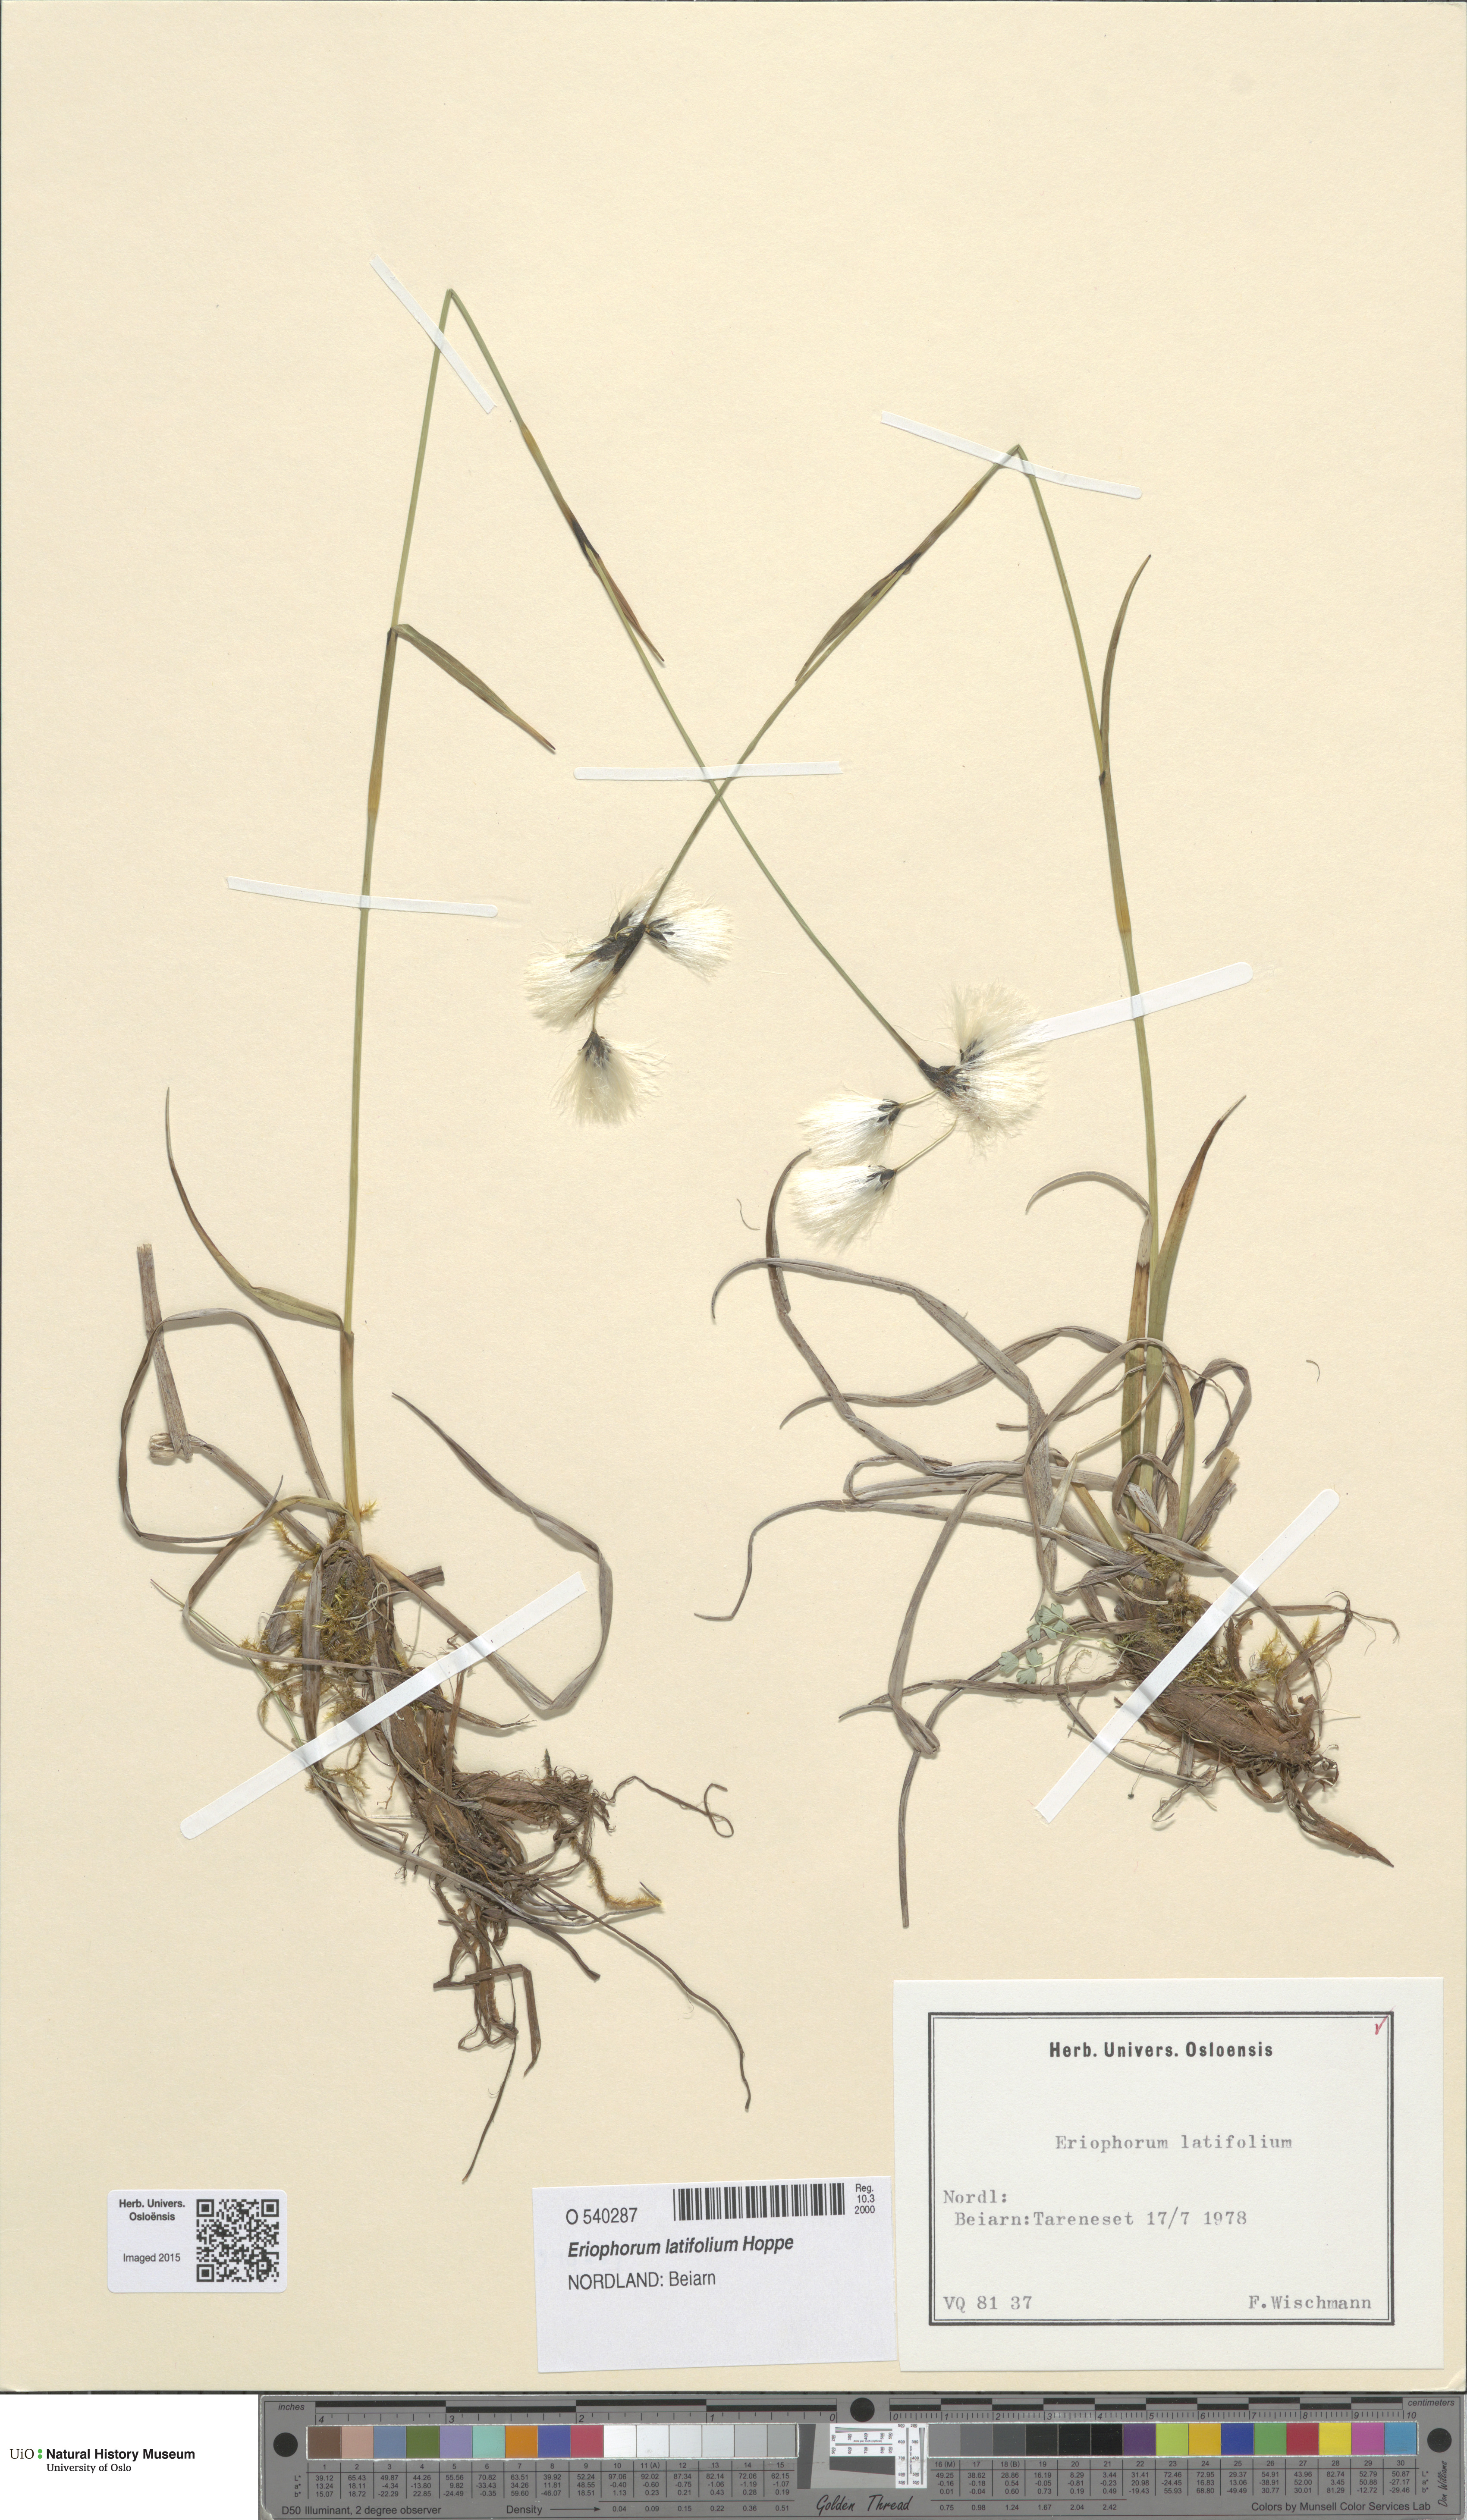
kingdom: Plantae
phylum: Tracheophyta
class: Liliopsida
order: Poales
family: Cyperaceae
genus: Eriophorum
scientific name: Eriophorum latifolium
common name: Broad-leaved cottongrass
